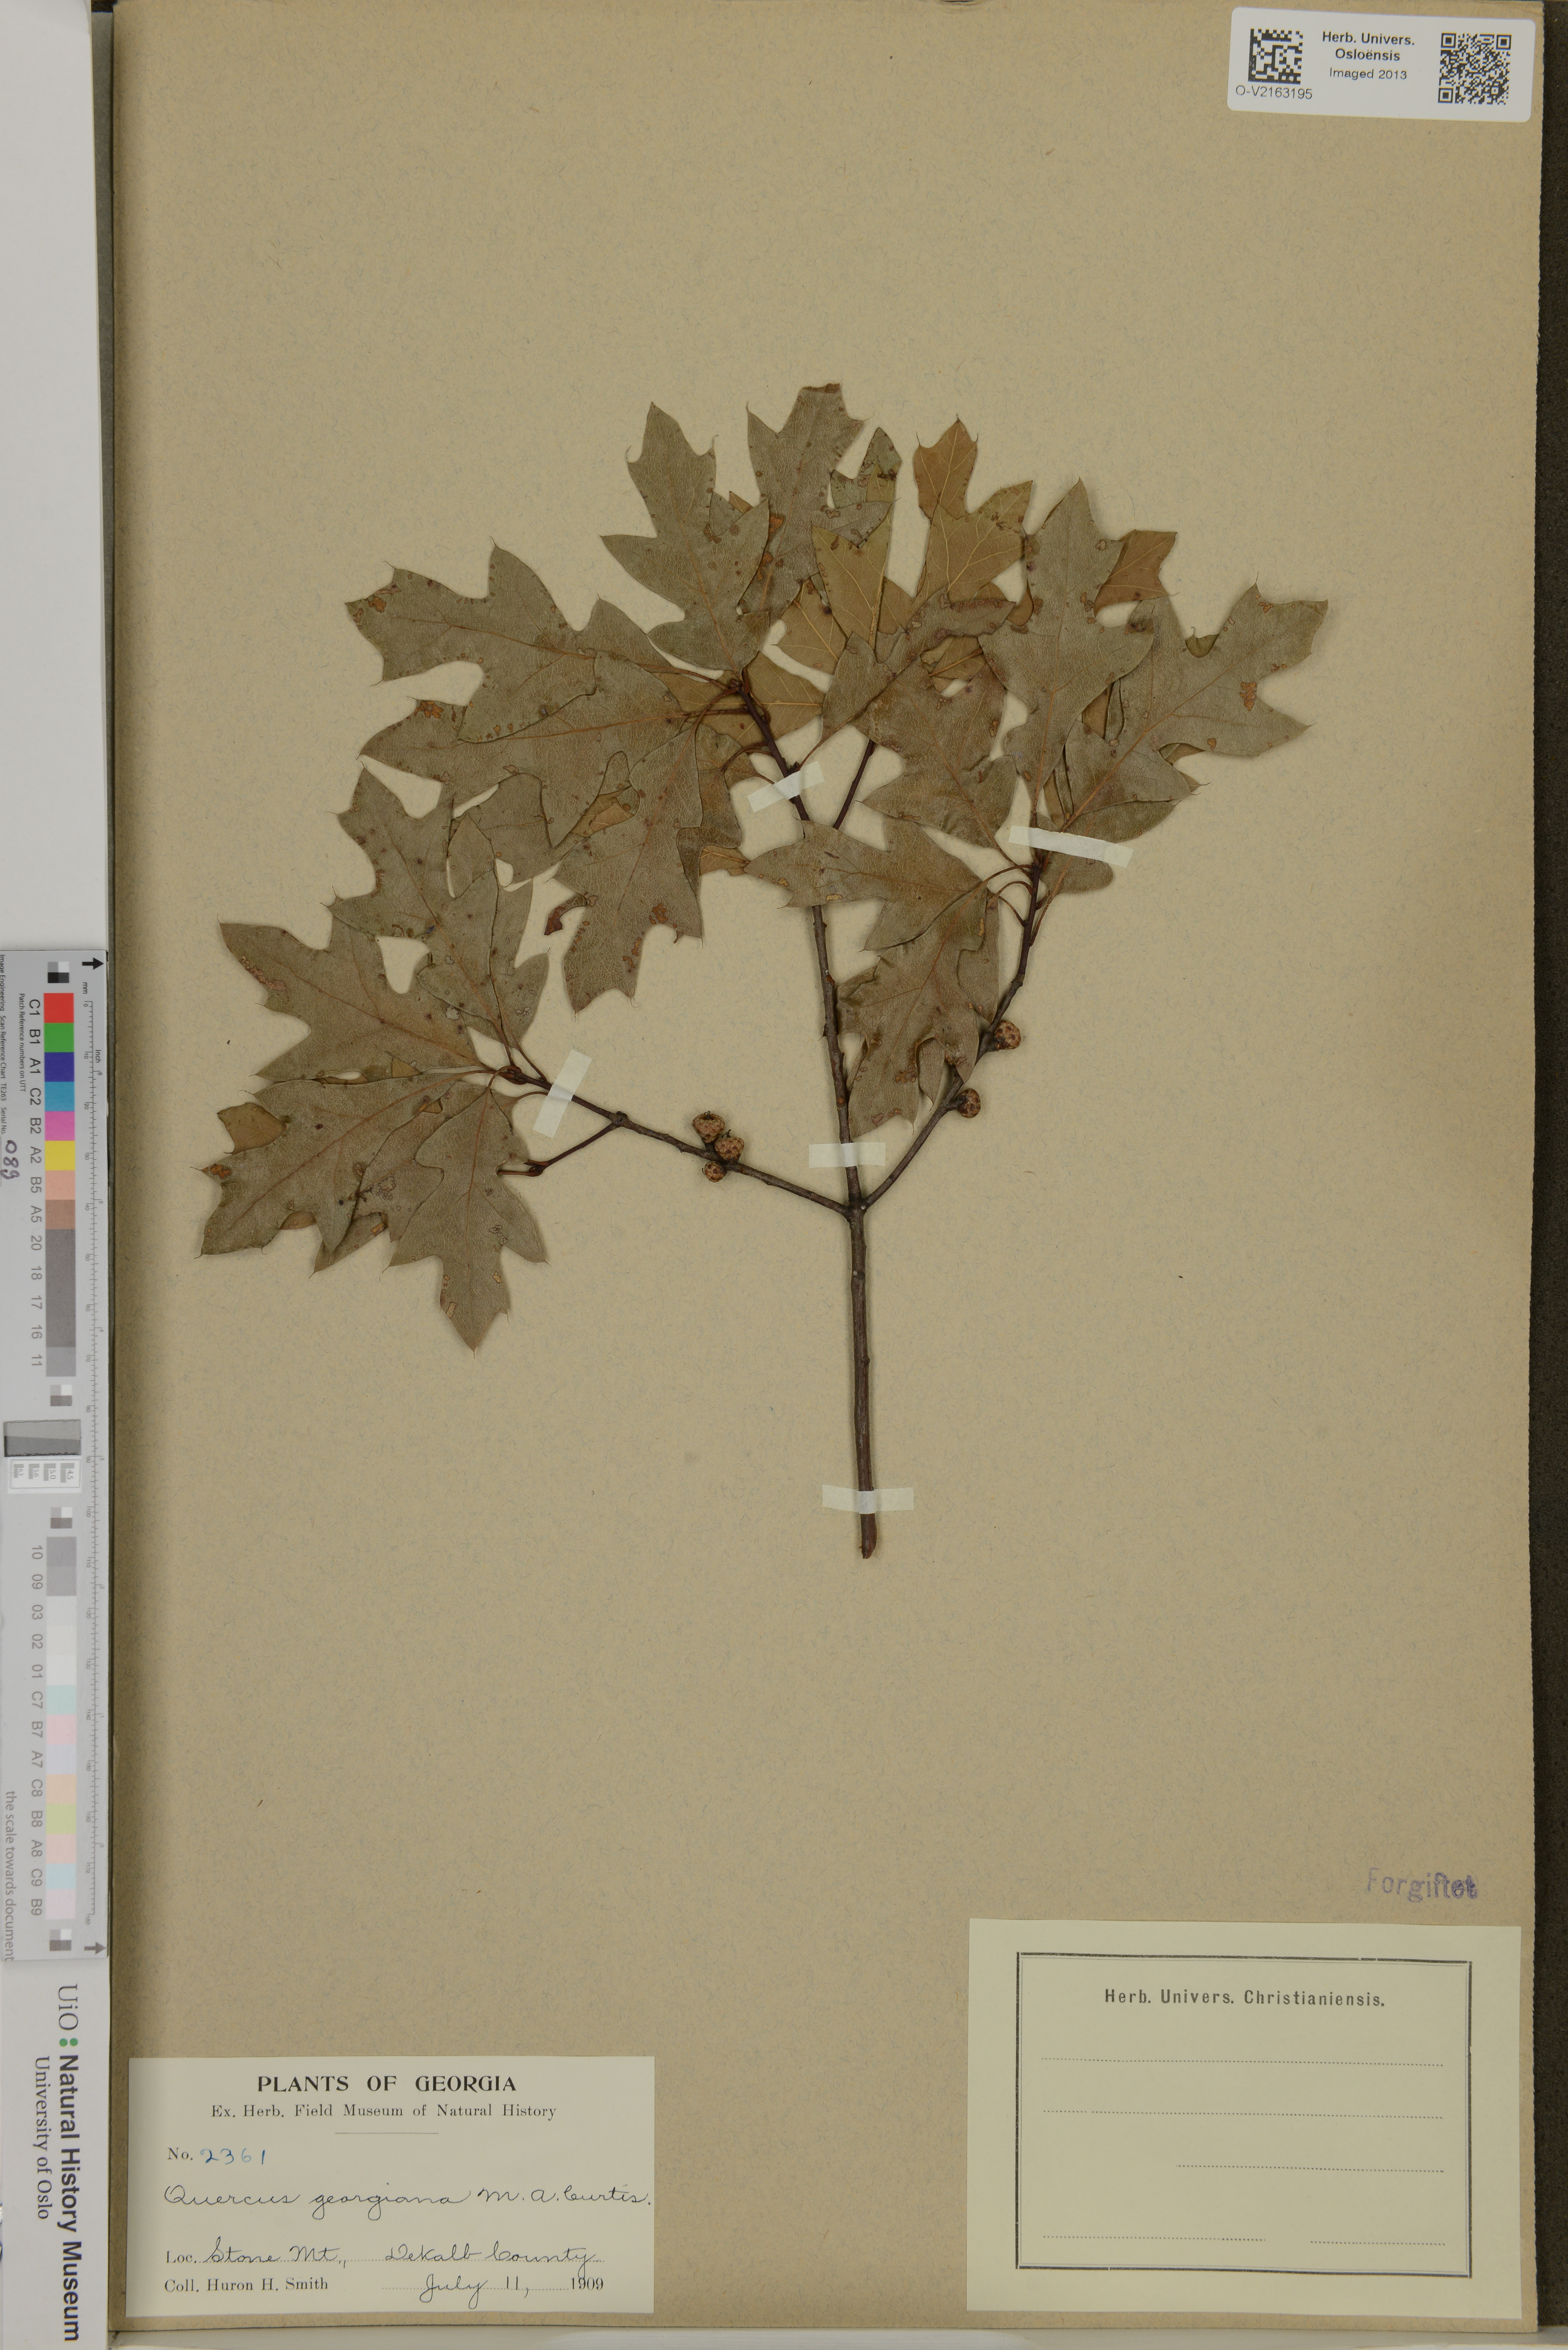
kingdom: Plantae
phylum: Tracheophyta
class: Magnoliopsida
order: Fagales
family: Fagaceae
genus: Quercus
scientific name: Quercus georgiana
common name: Georgia oak
